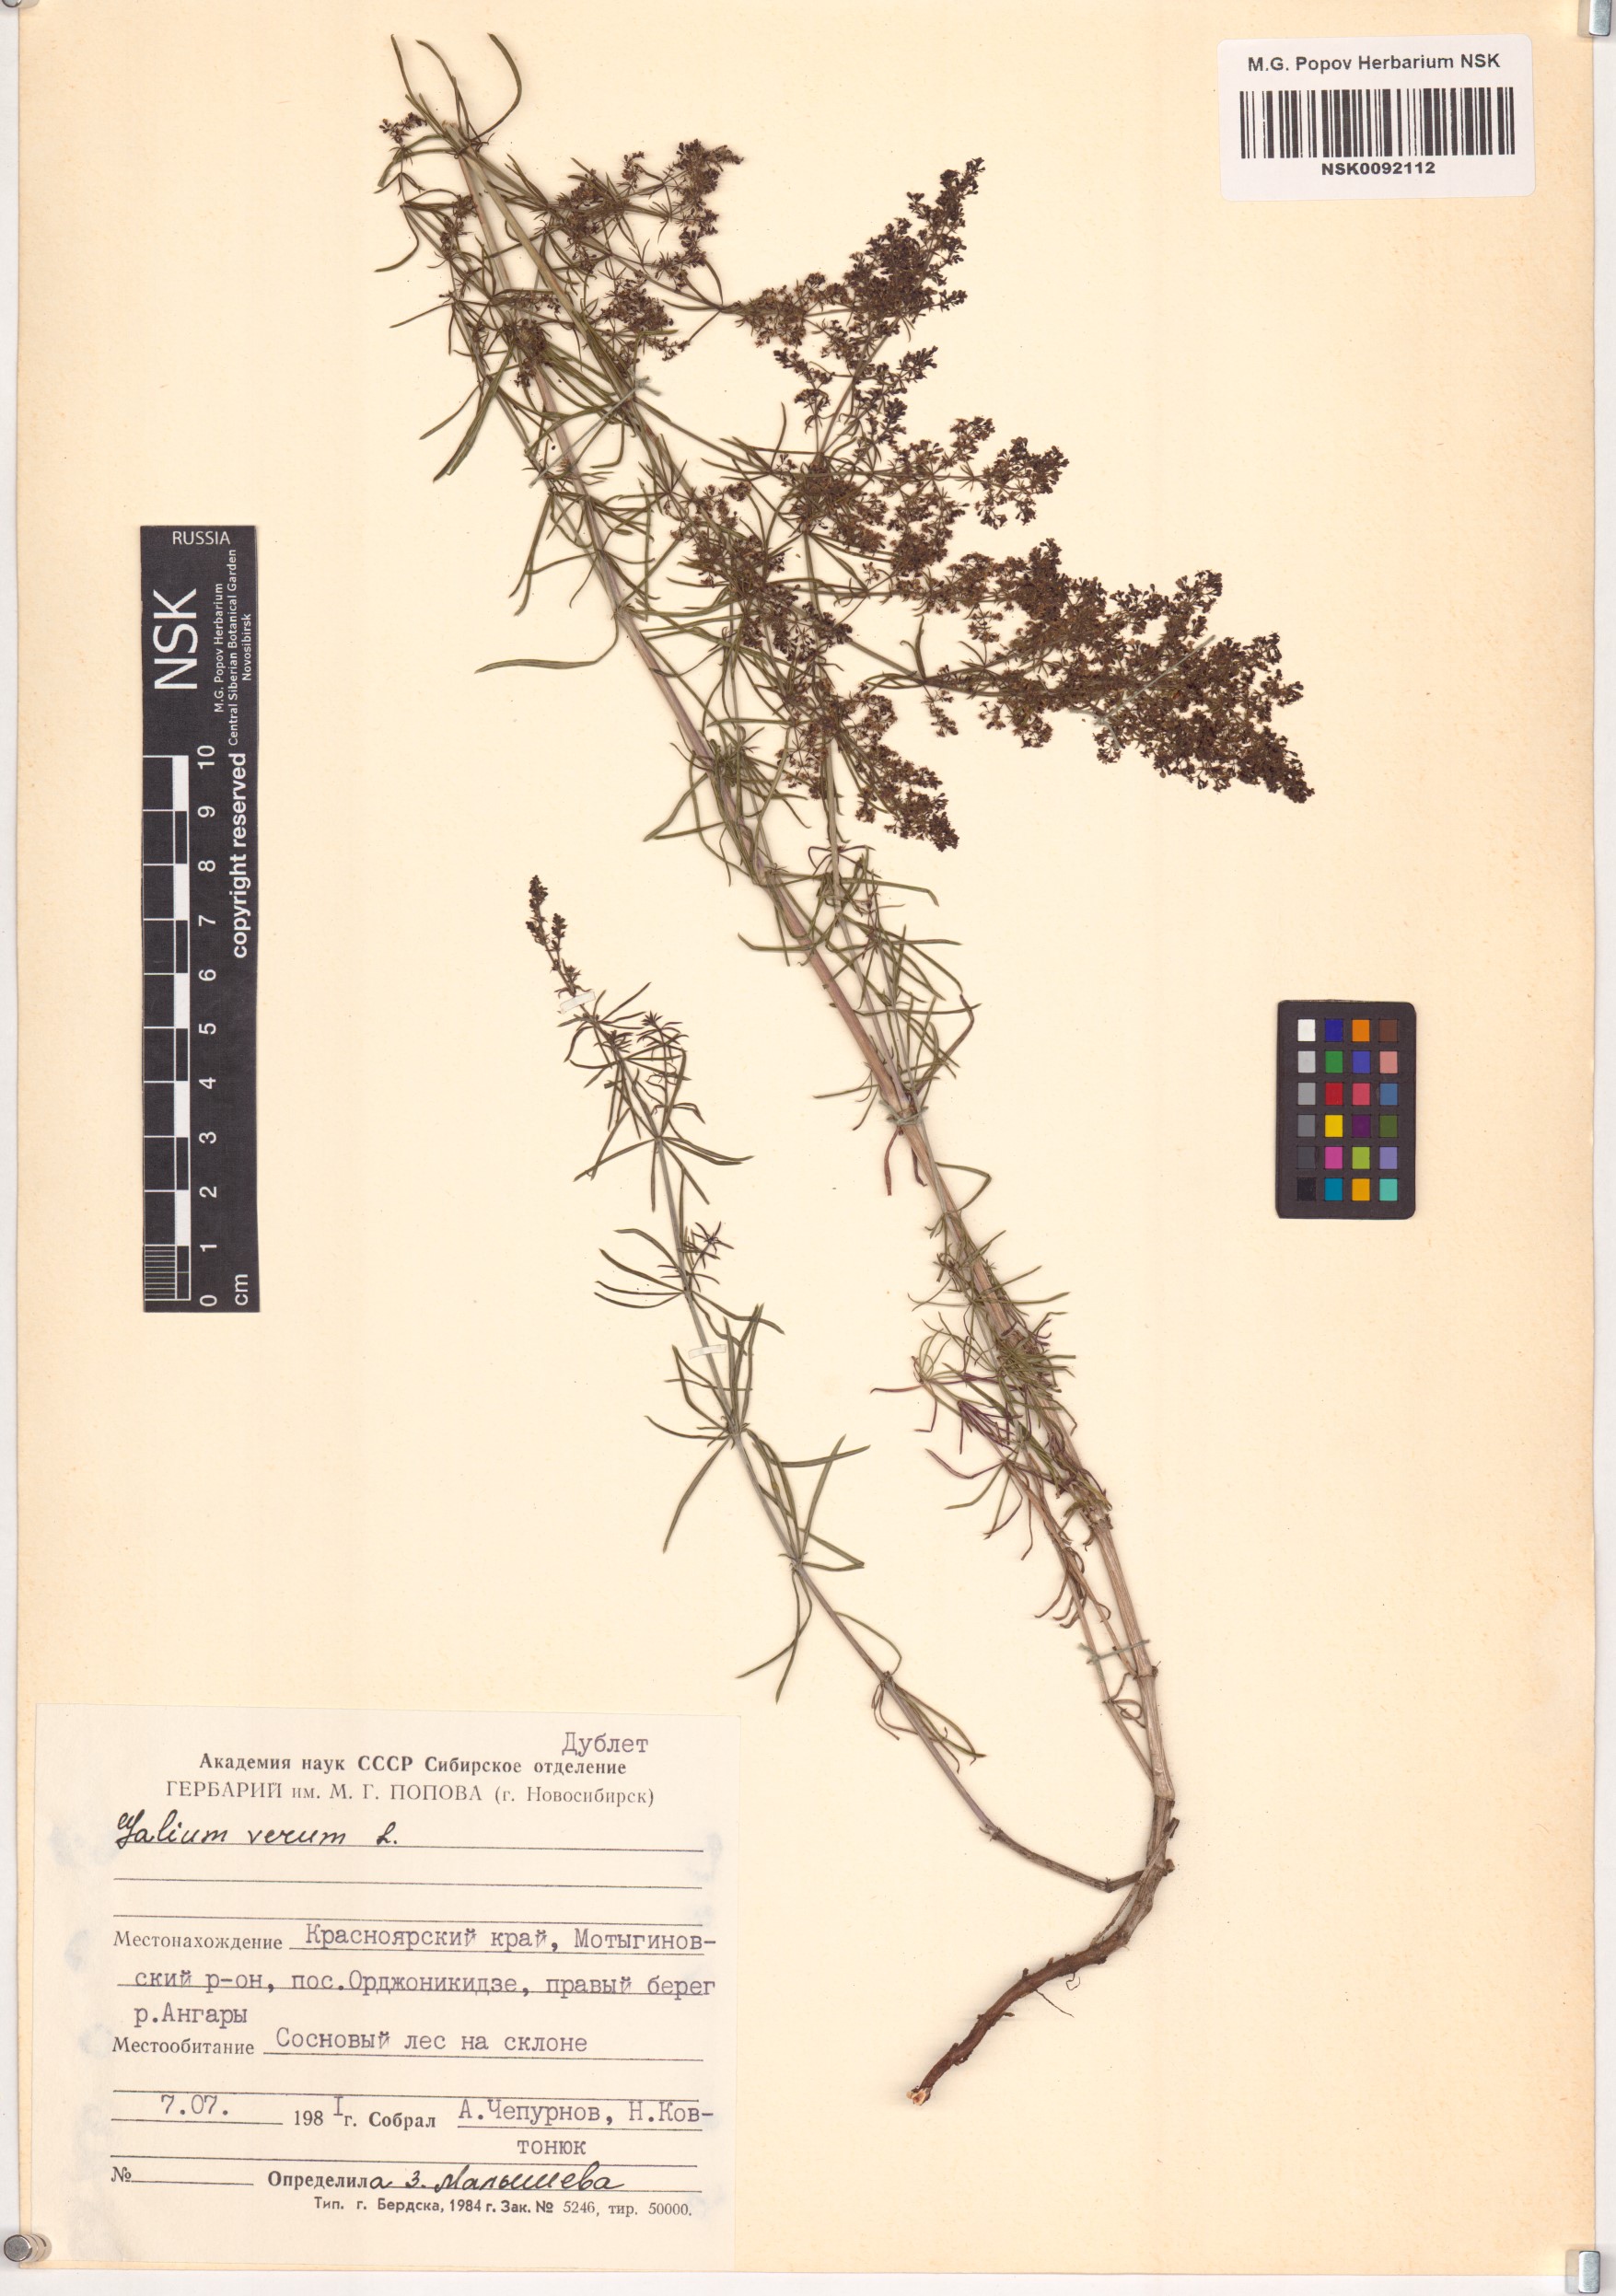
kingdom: Plantae
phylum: Tracheophyta
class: Magnoliopsida
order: Gentianales
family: Rubiaceae
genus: Galium
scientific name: Galium verum
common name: Lady's bedstraw
